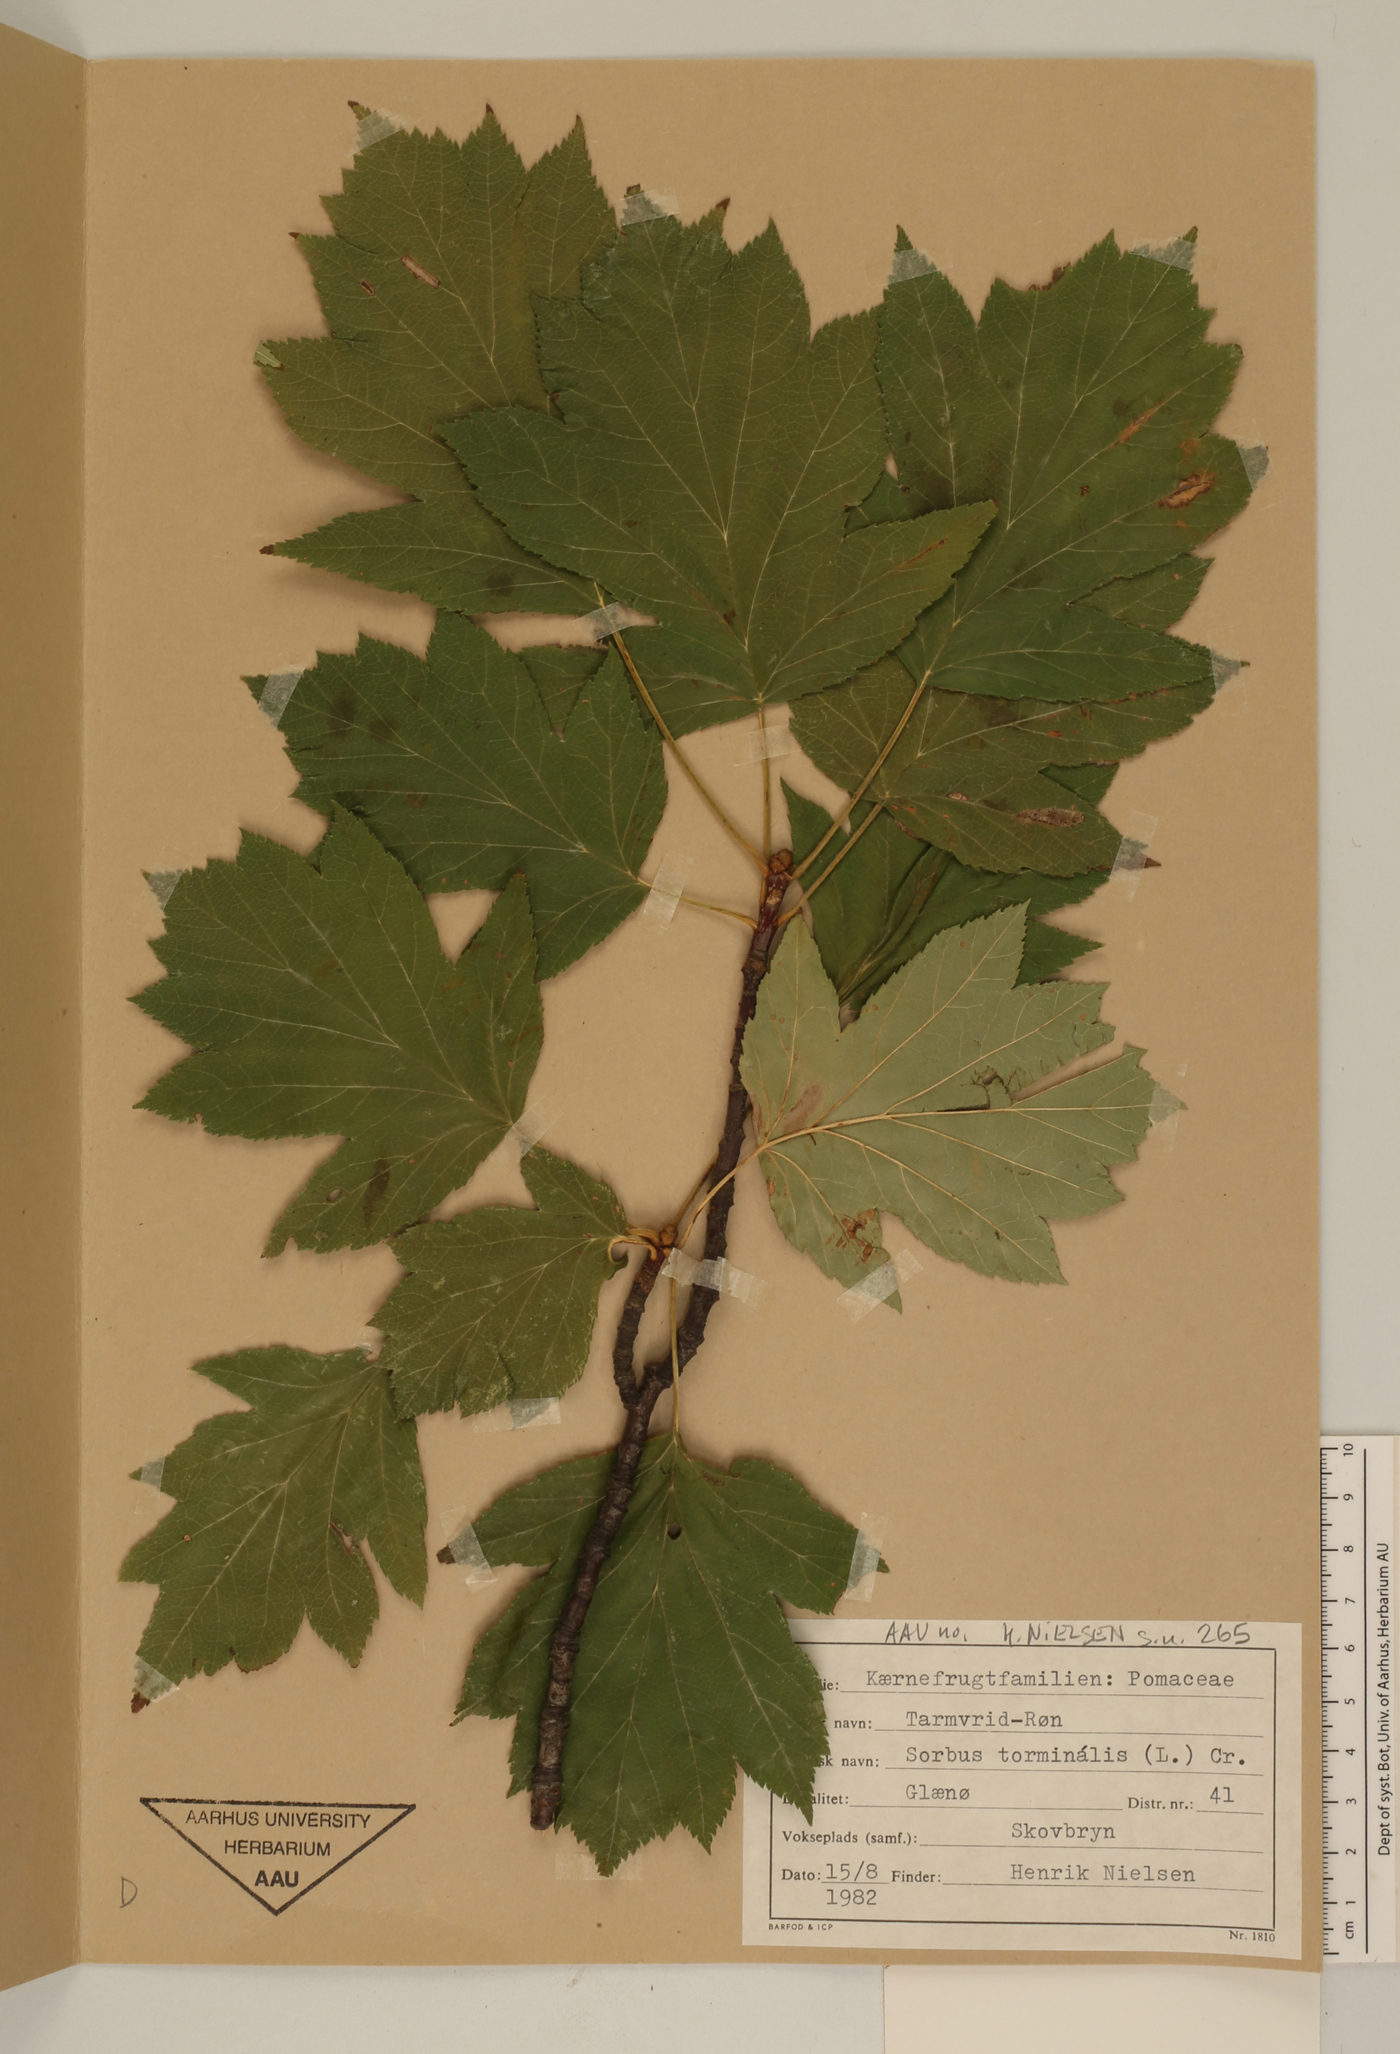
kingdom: Plantae
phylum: Tracheophyta
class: Magnoliopsida
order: Rosales
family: Rosaceae
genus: Torminalis
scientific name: Torminalis glaberrima
